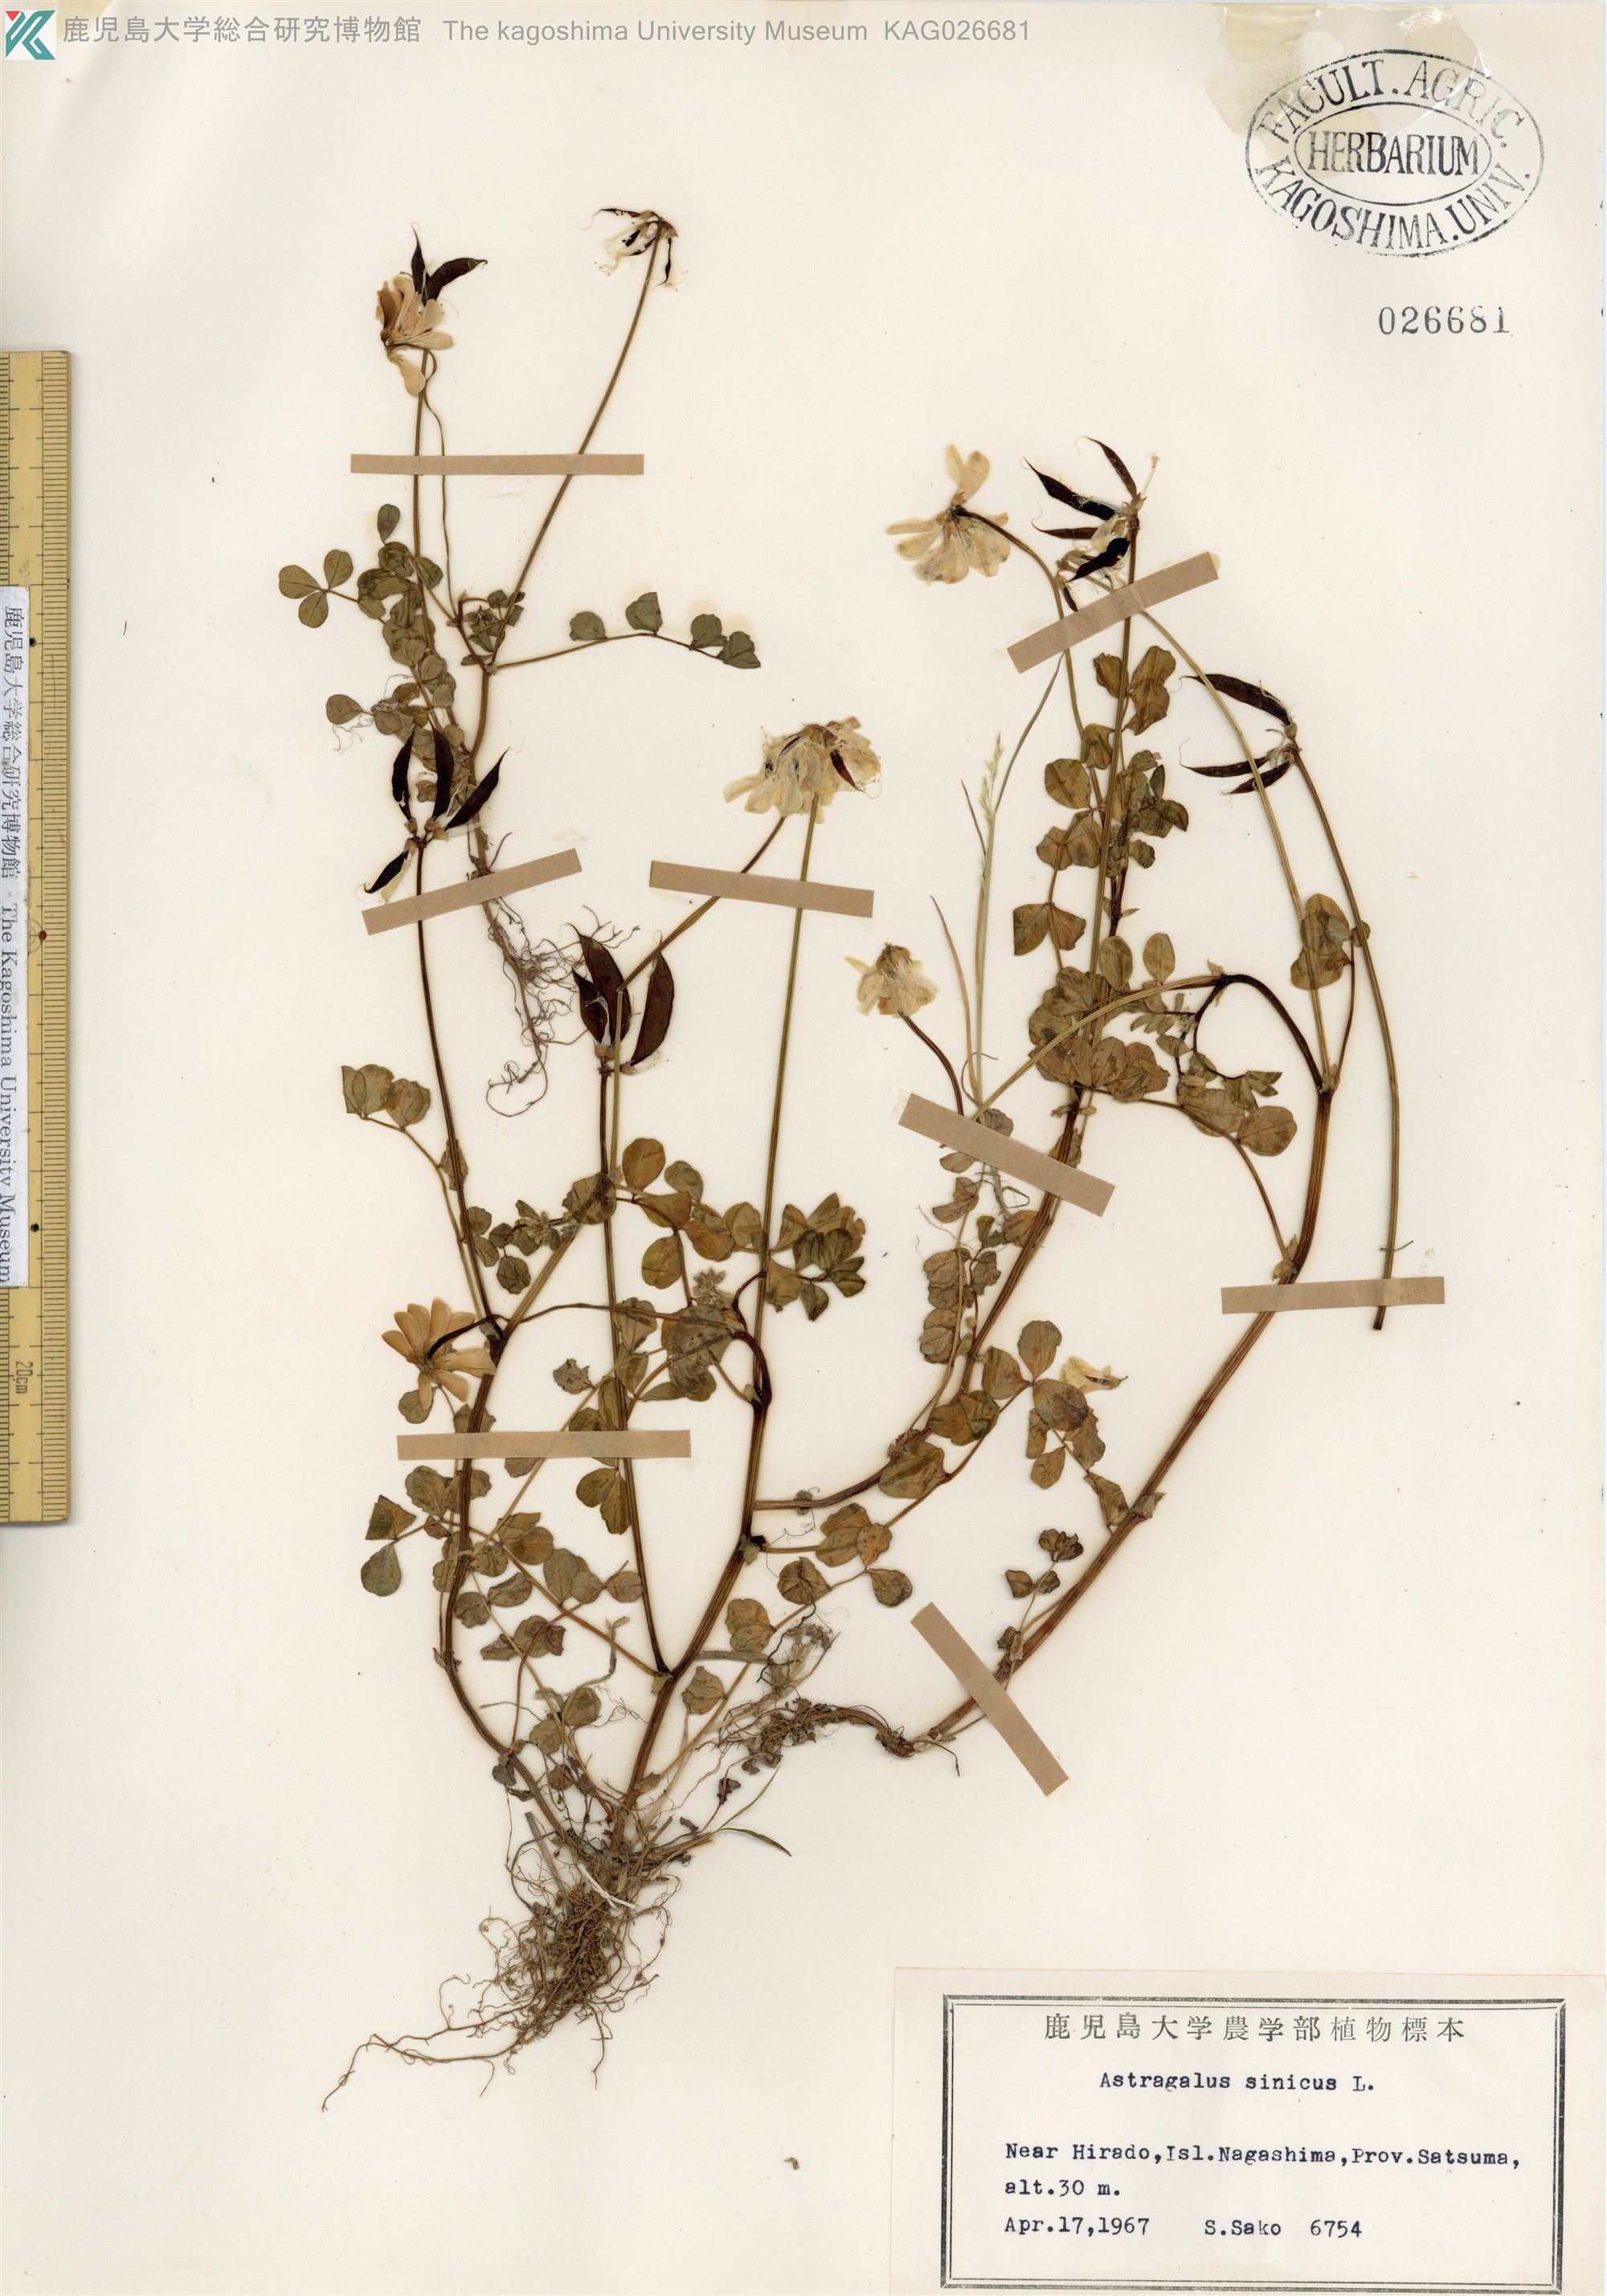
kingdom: Plantae
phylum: Tracheophyta
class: Magnoliopsida
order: Fabales
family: Fabaceae
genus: Astragalus
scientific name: Astragalus sinicus
